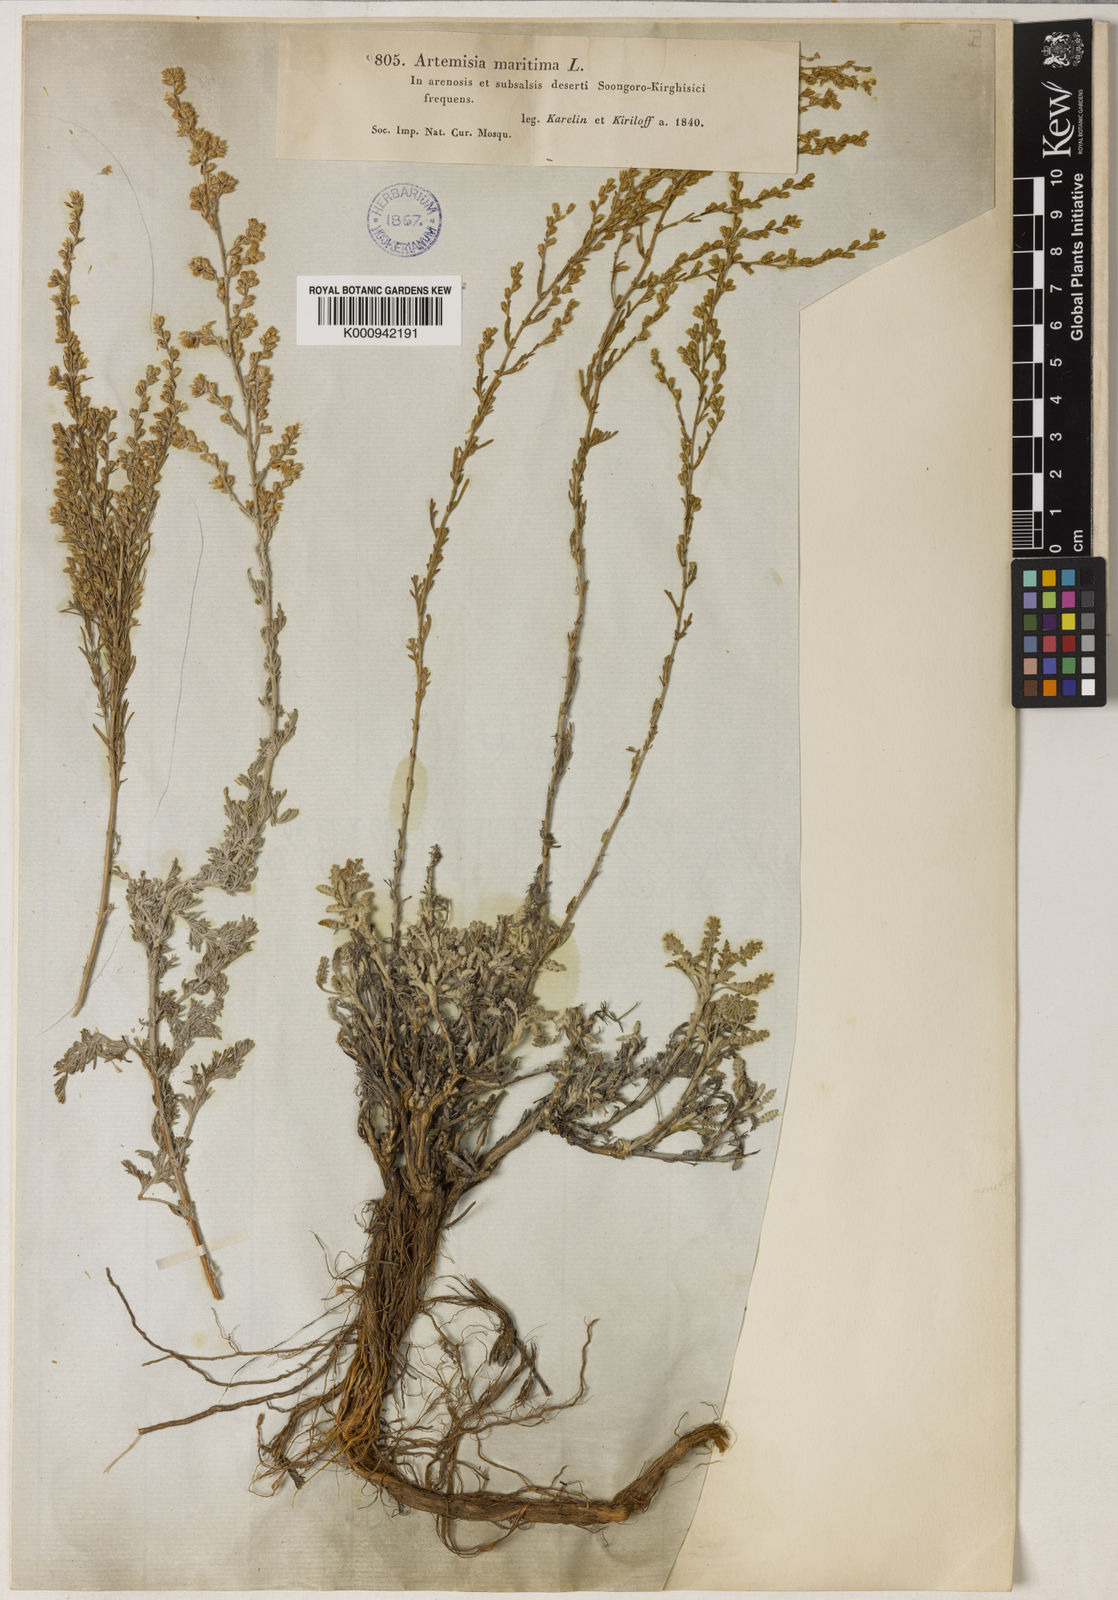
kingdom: Plantae
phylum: Tracheophyta
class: Magnoliopsida
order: Asterales
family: Asteraceae
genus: Artemisia
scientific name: Artemisia santonicum
